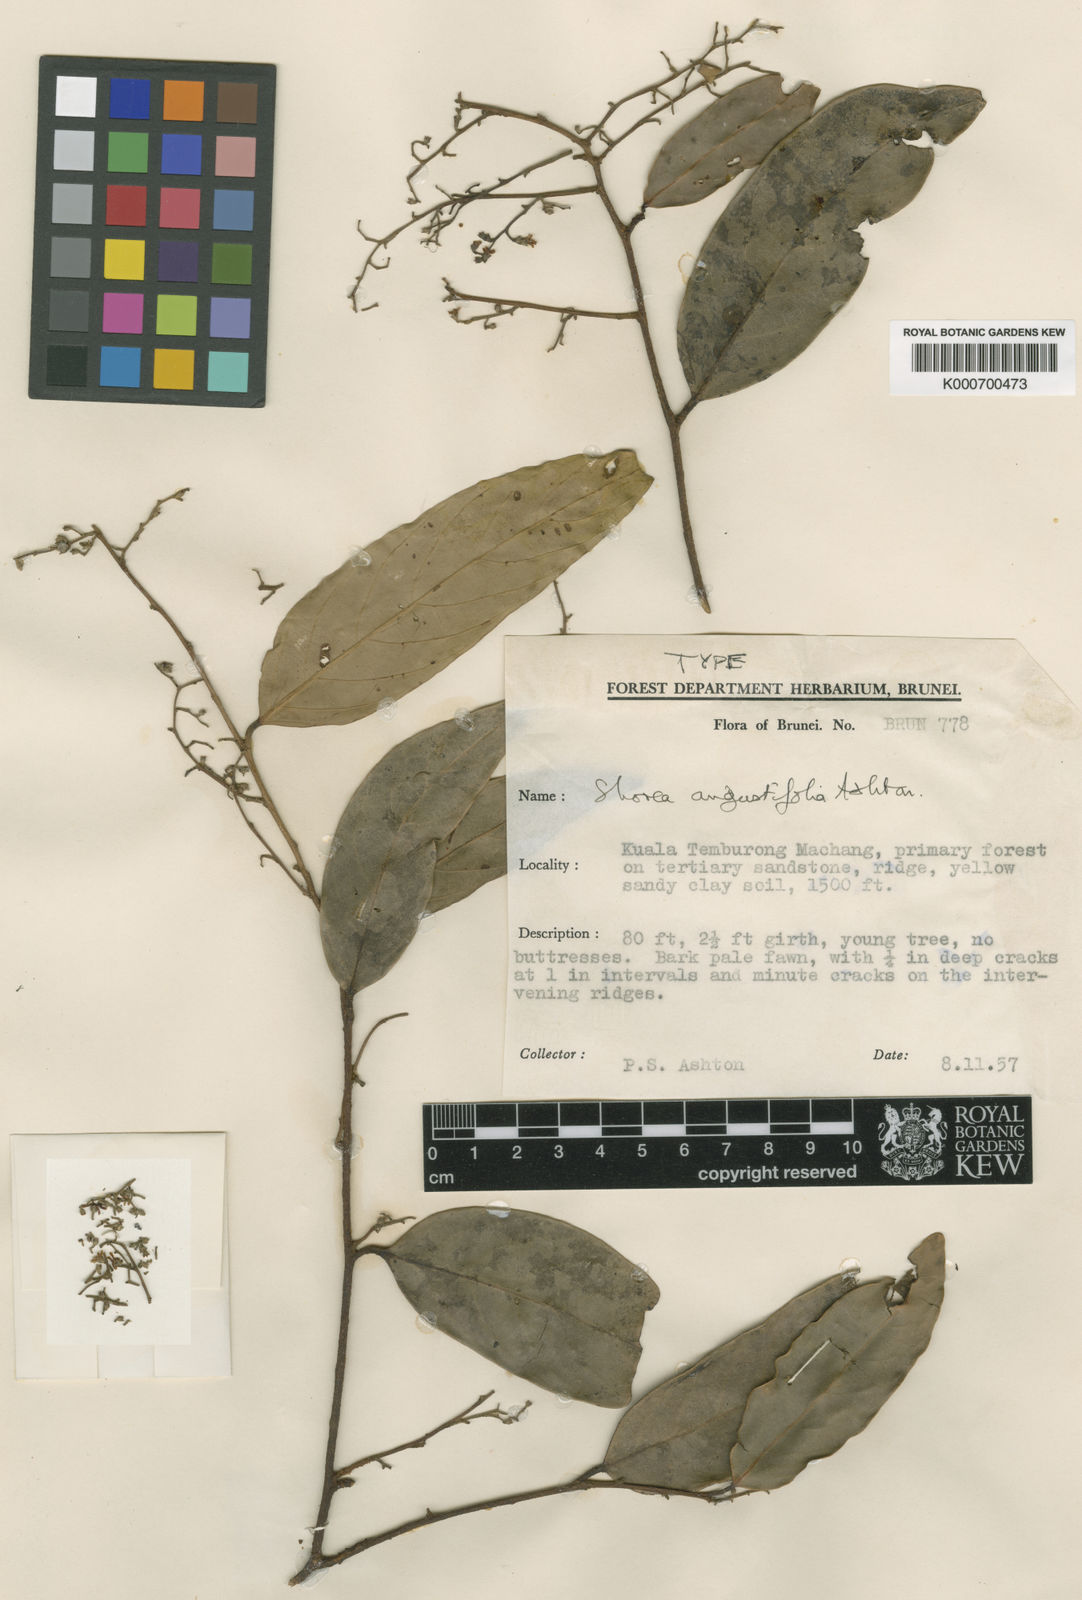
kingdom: Plantae
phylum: Tracheophyta
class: Magnoliopsida
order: Malvales
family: Dipterocarpaceae
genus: Shorea
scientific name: Shorea angustifolia
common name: Yellow meranti
